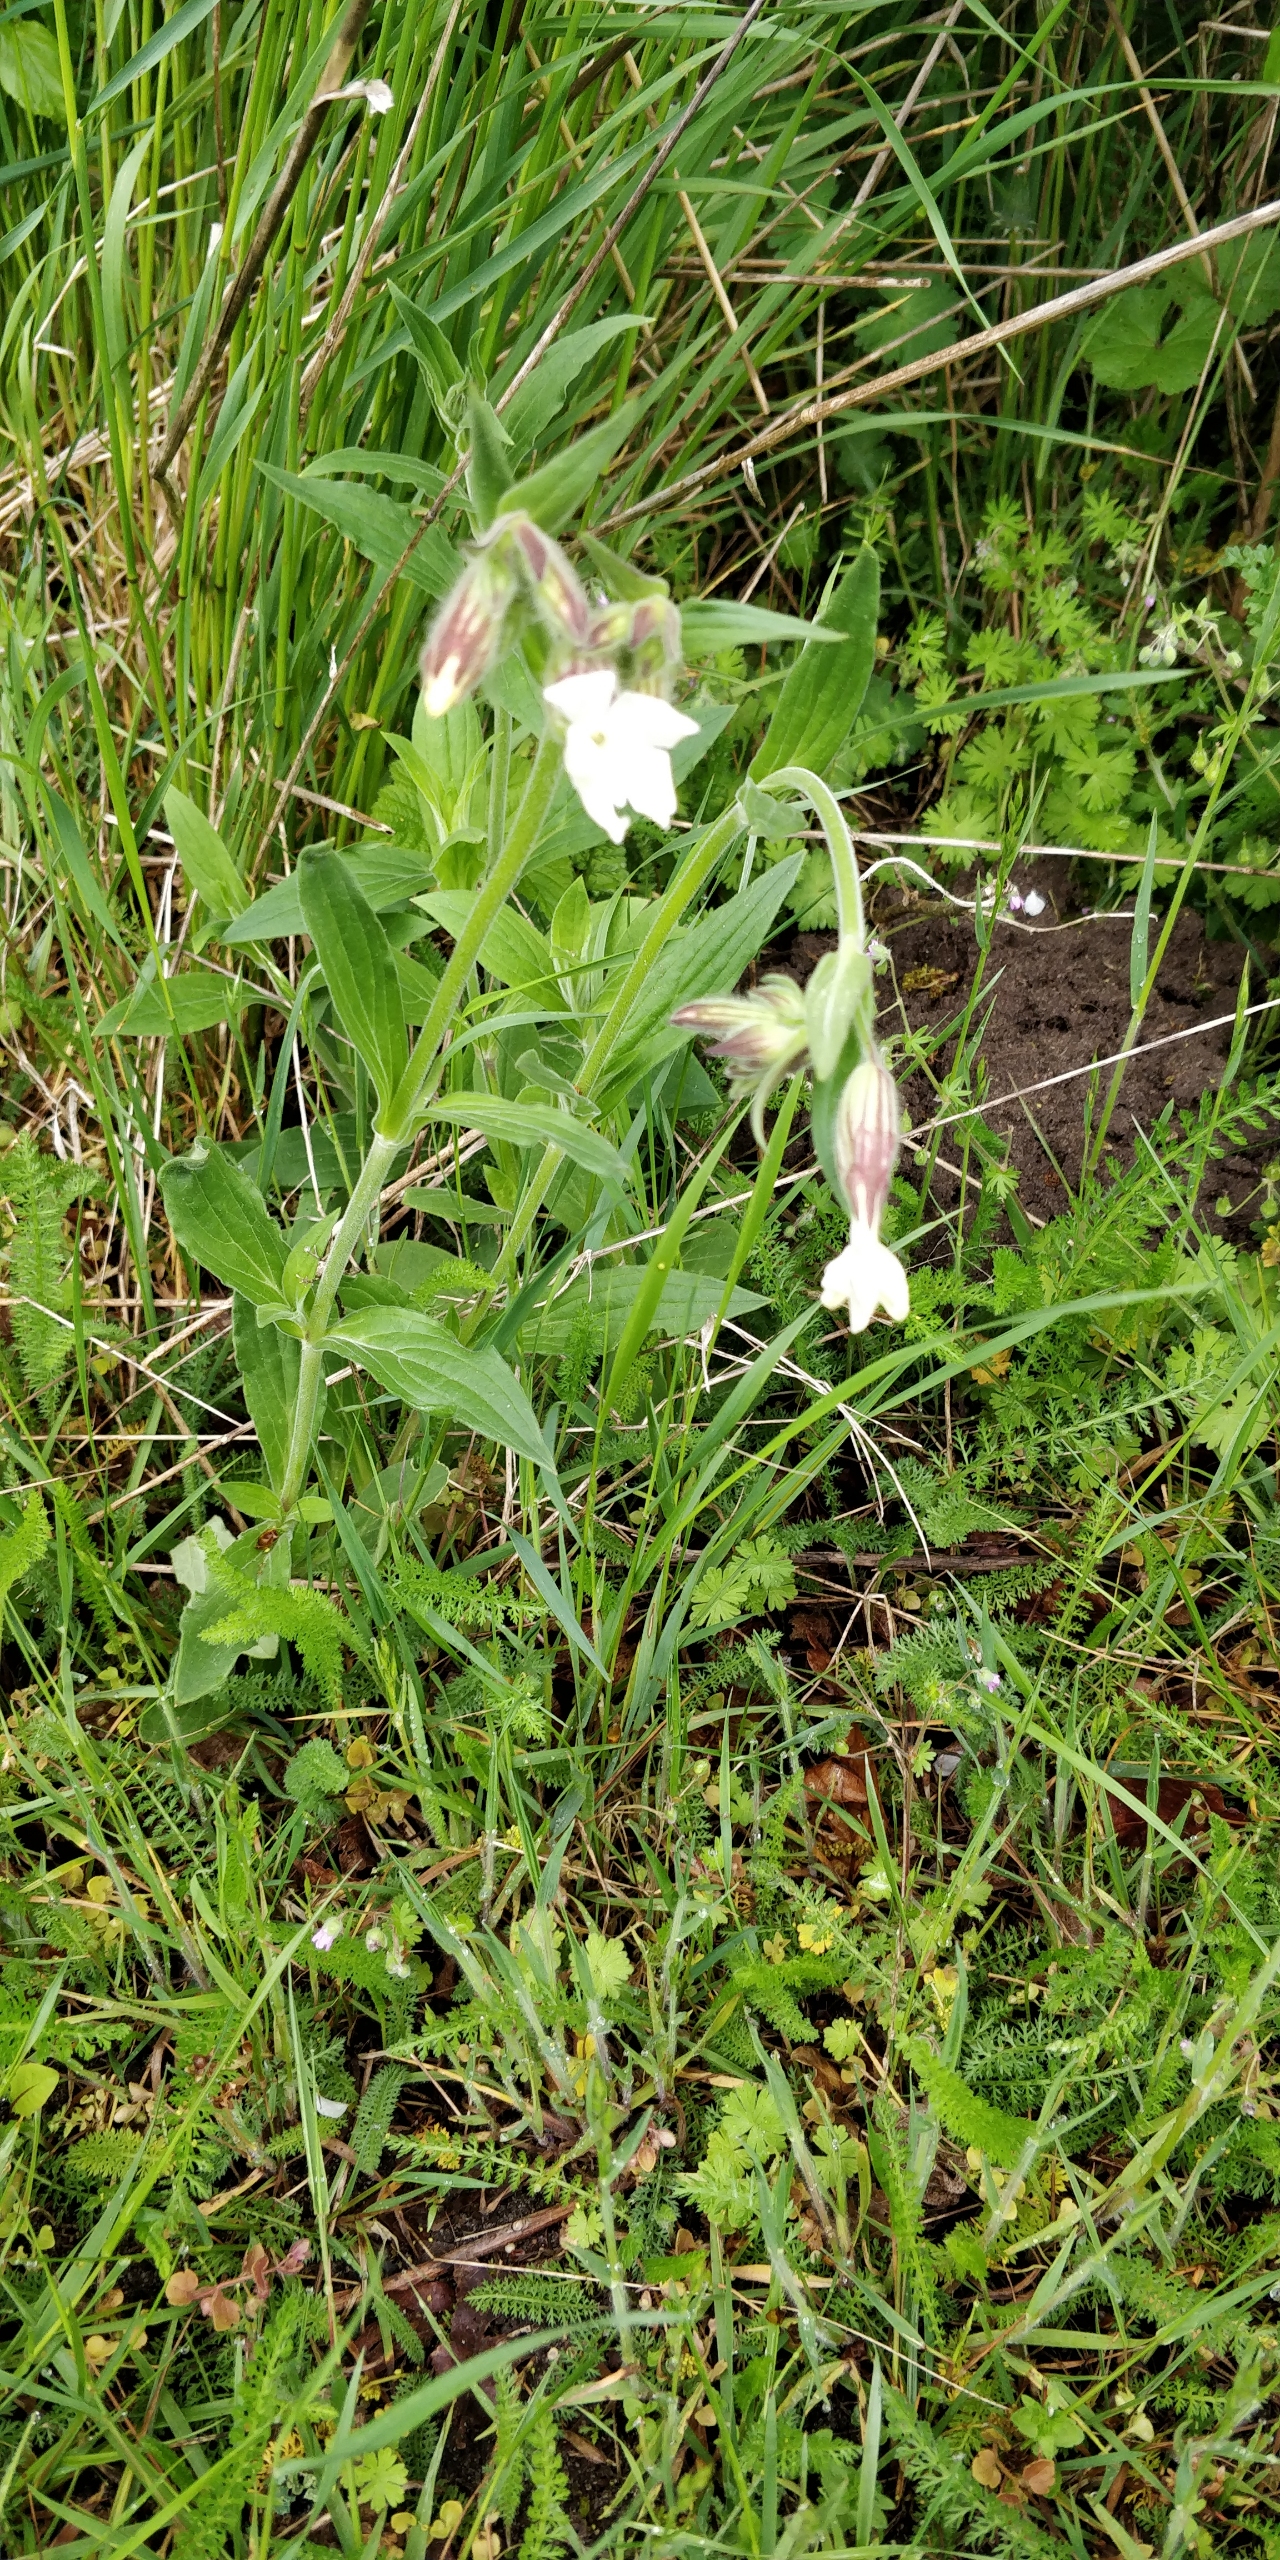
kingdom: Plantae
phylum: Tracheophyta
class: Magnoliopsida
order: Caryophyllales
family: Caryophyllaceae
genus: Silene
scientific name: Silene latifolia
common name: Aftenpragtstjerne
